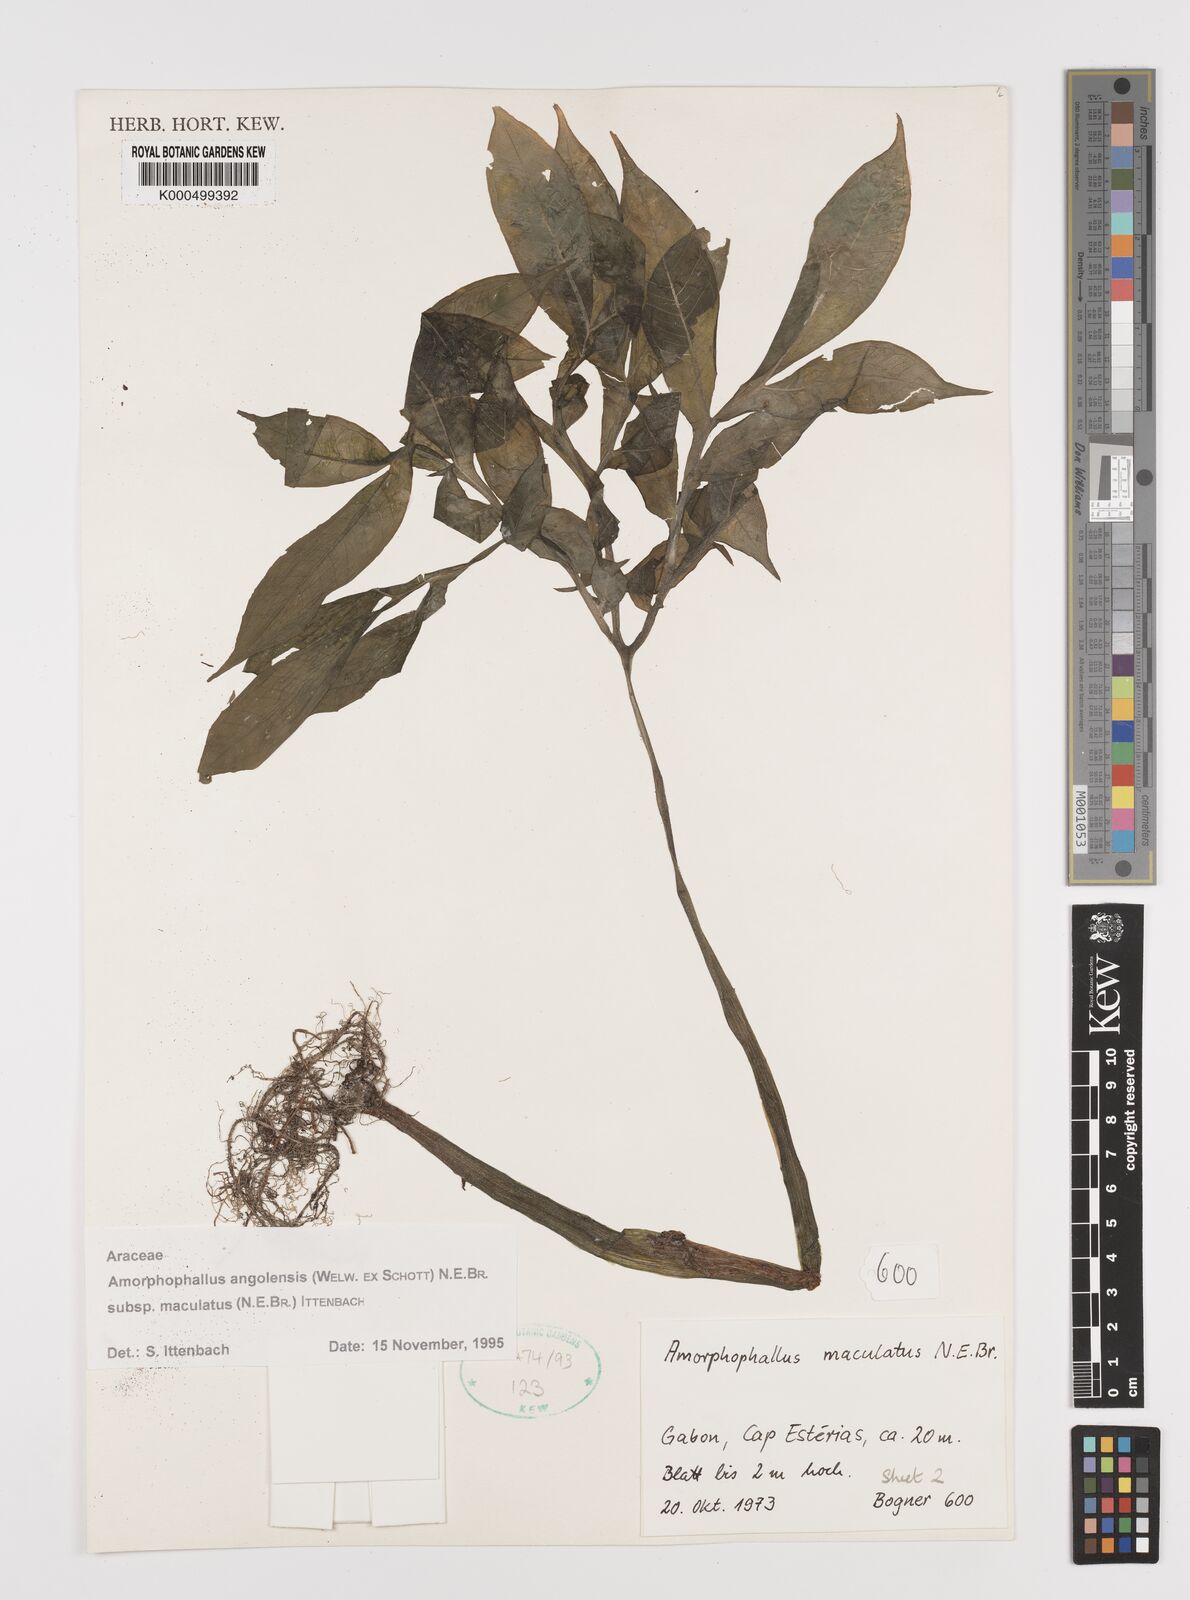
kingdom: Plantae
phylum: Tracheophyta
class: Liliopsida
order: Alismatales
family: Araceae
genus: Amorphophallus
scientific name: Amorphophallus
